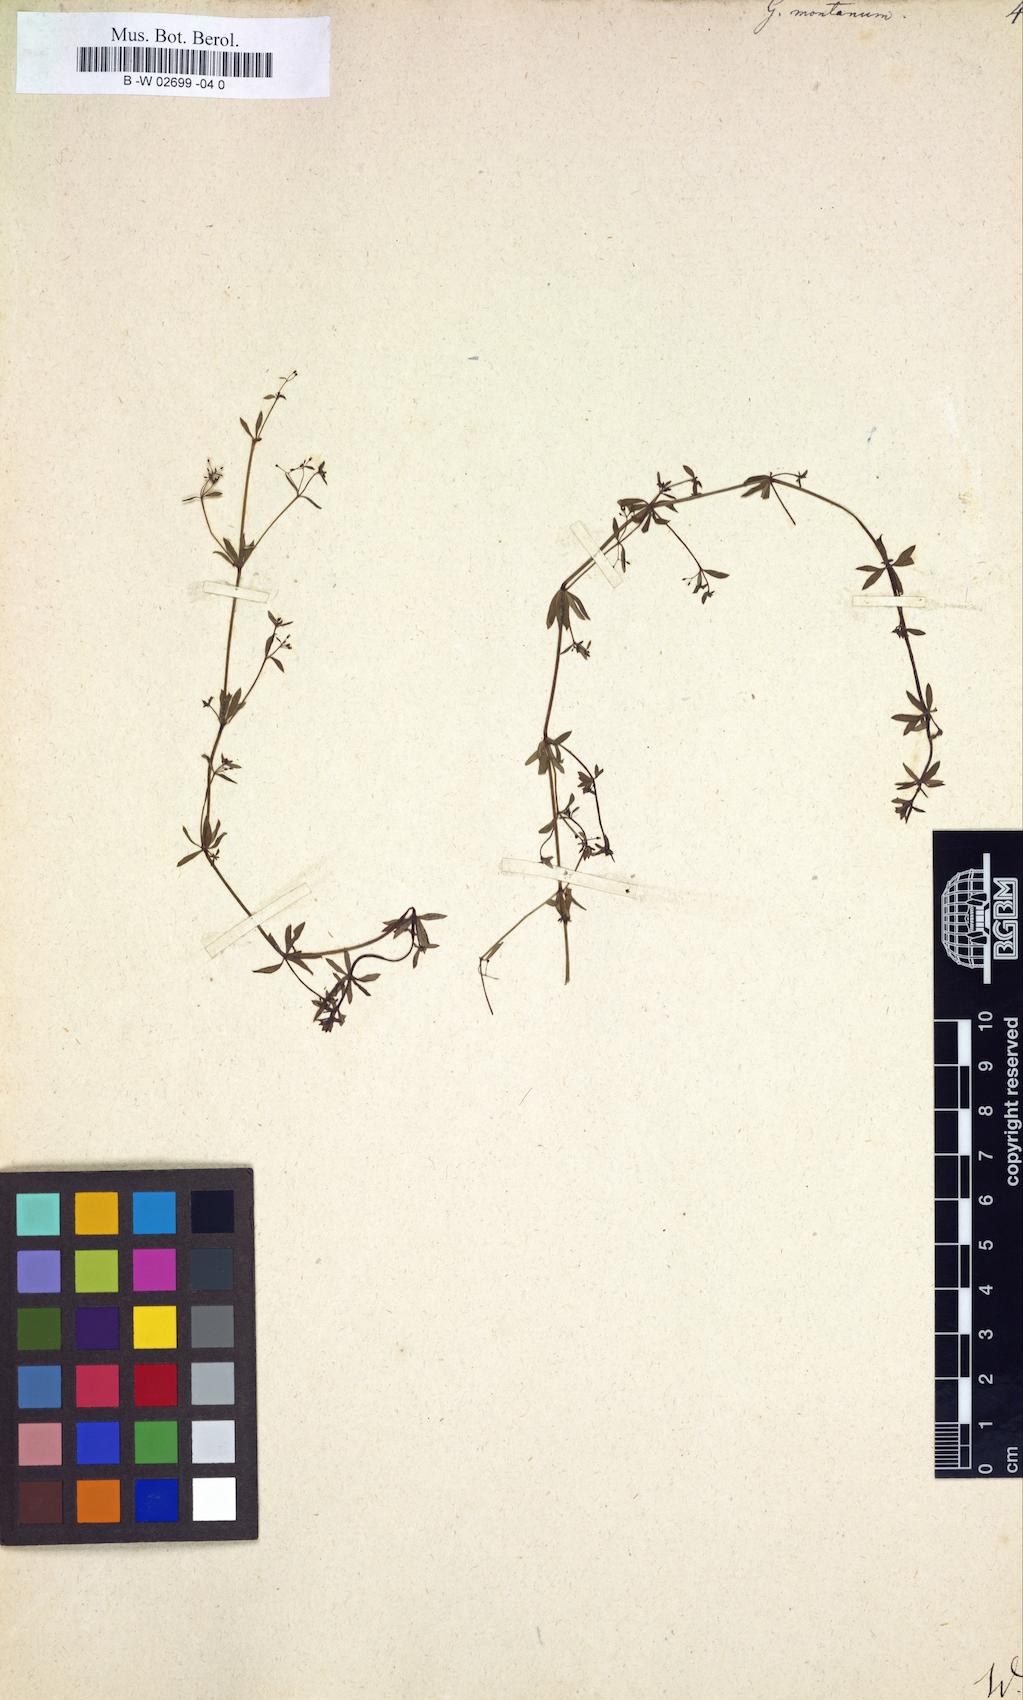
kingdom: Plantae
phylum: Tracheophyta
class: Magnoliopsida
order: Gentianales
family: Rubiaceae
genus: Galium
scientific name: Galium
